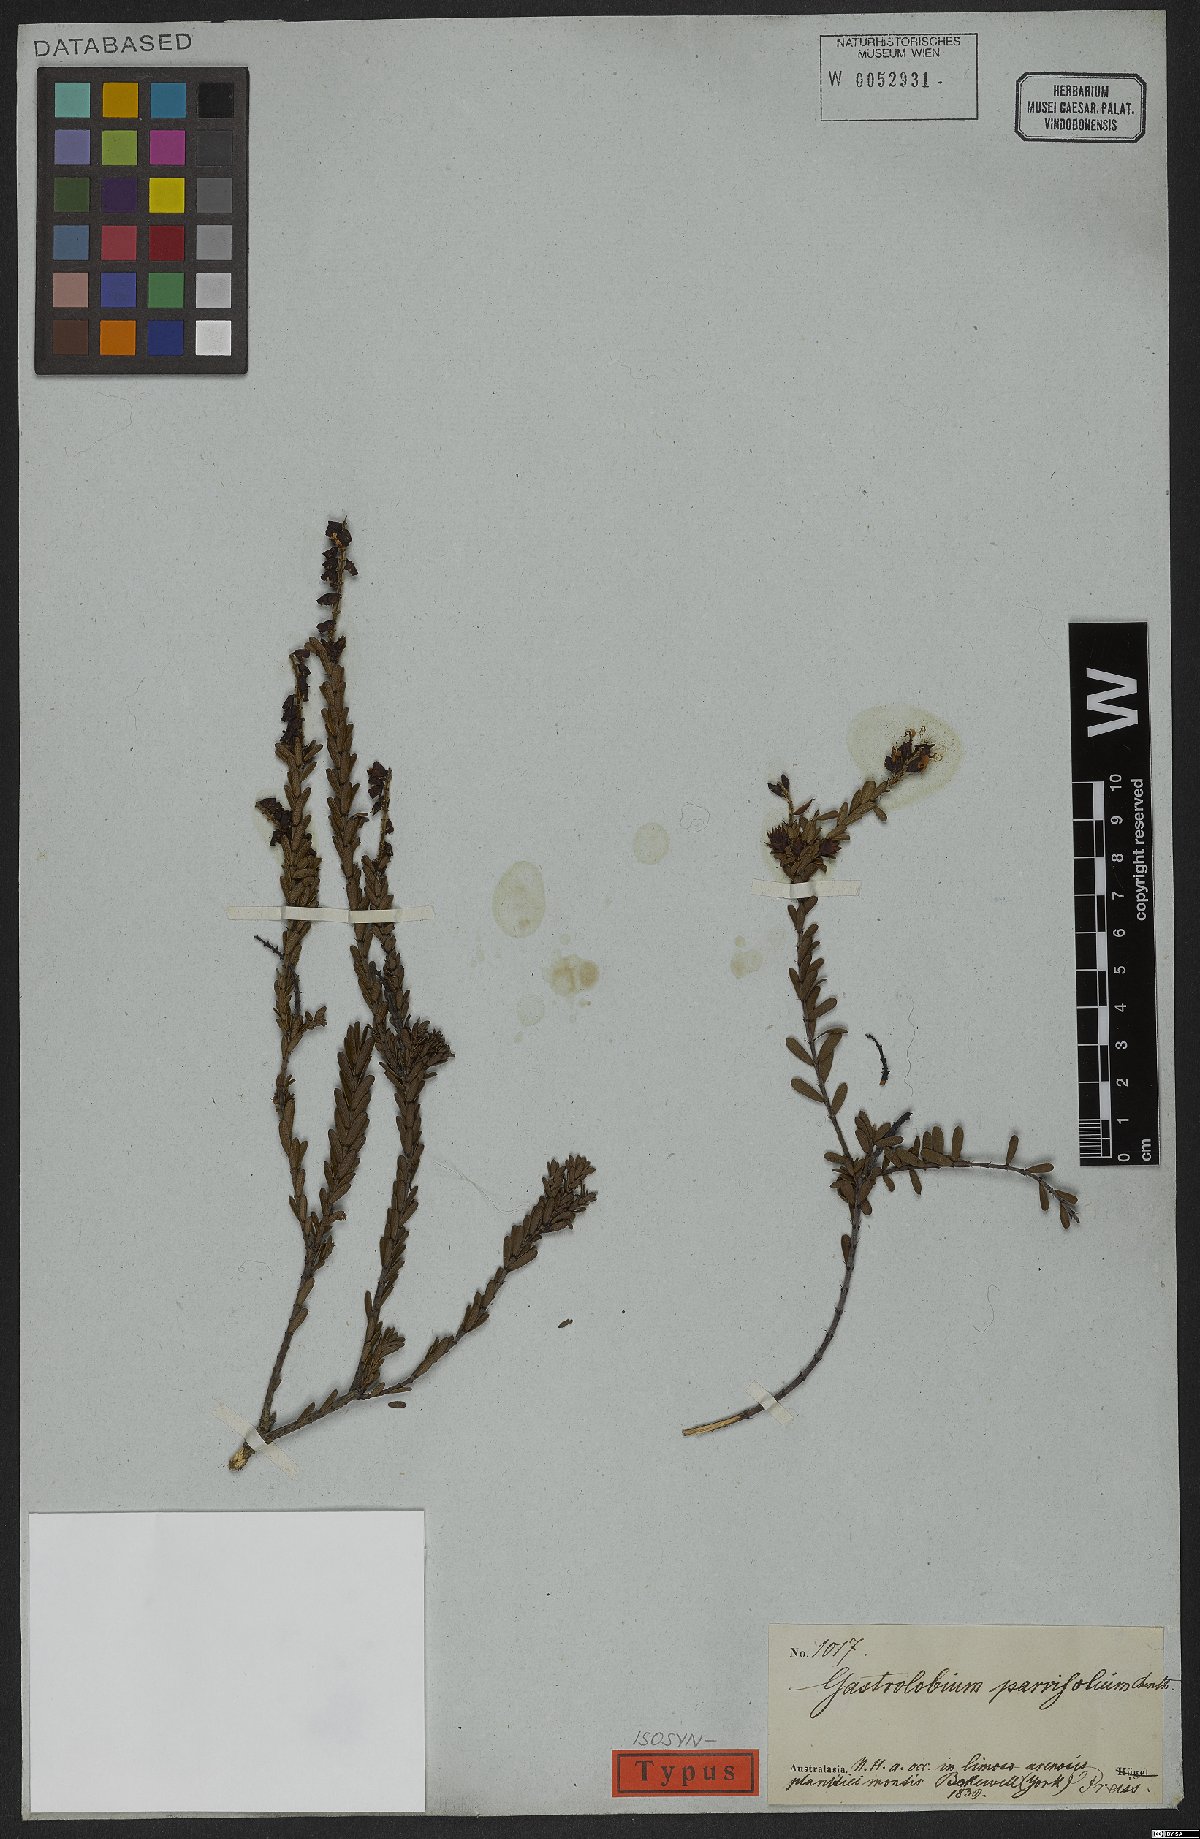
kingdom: Plantae
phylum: Tracheophyta
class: Magnoliopsida
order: Fabales
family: Fabaceae
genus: Gastrolobium
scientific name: Gastrolobium parvifolium
